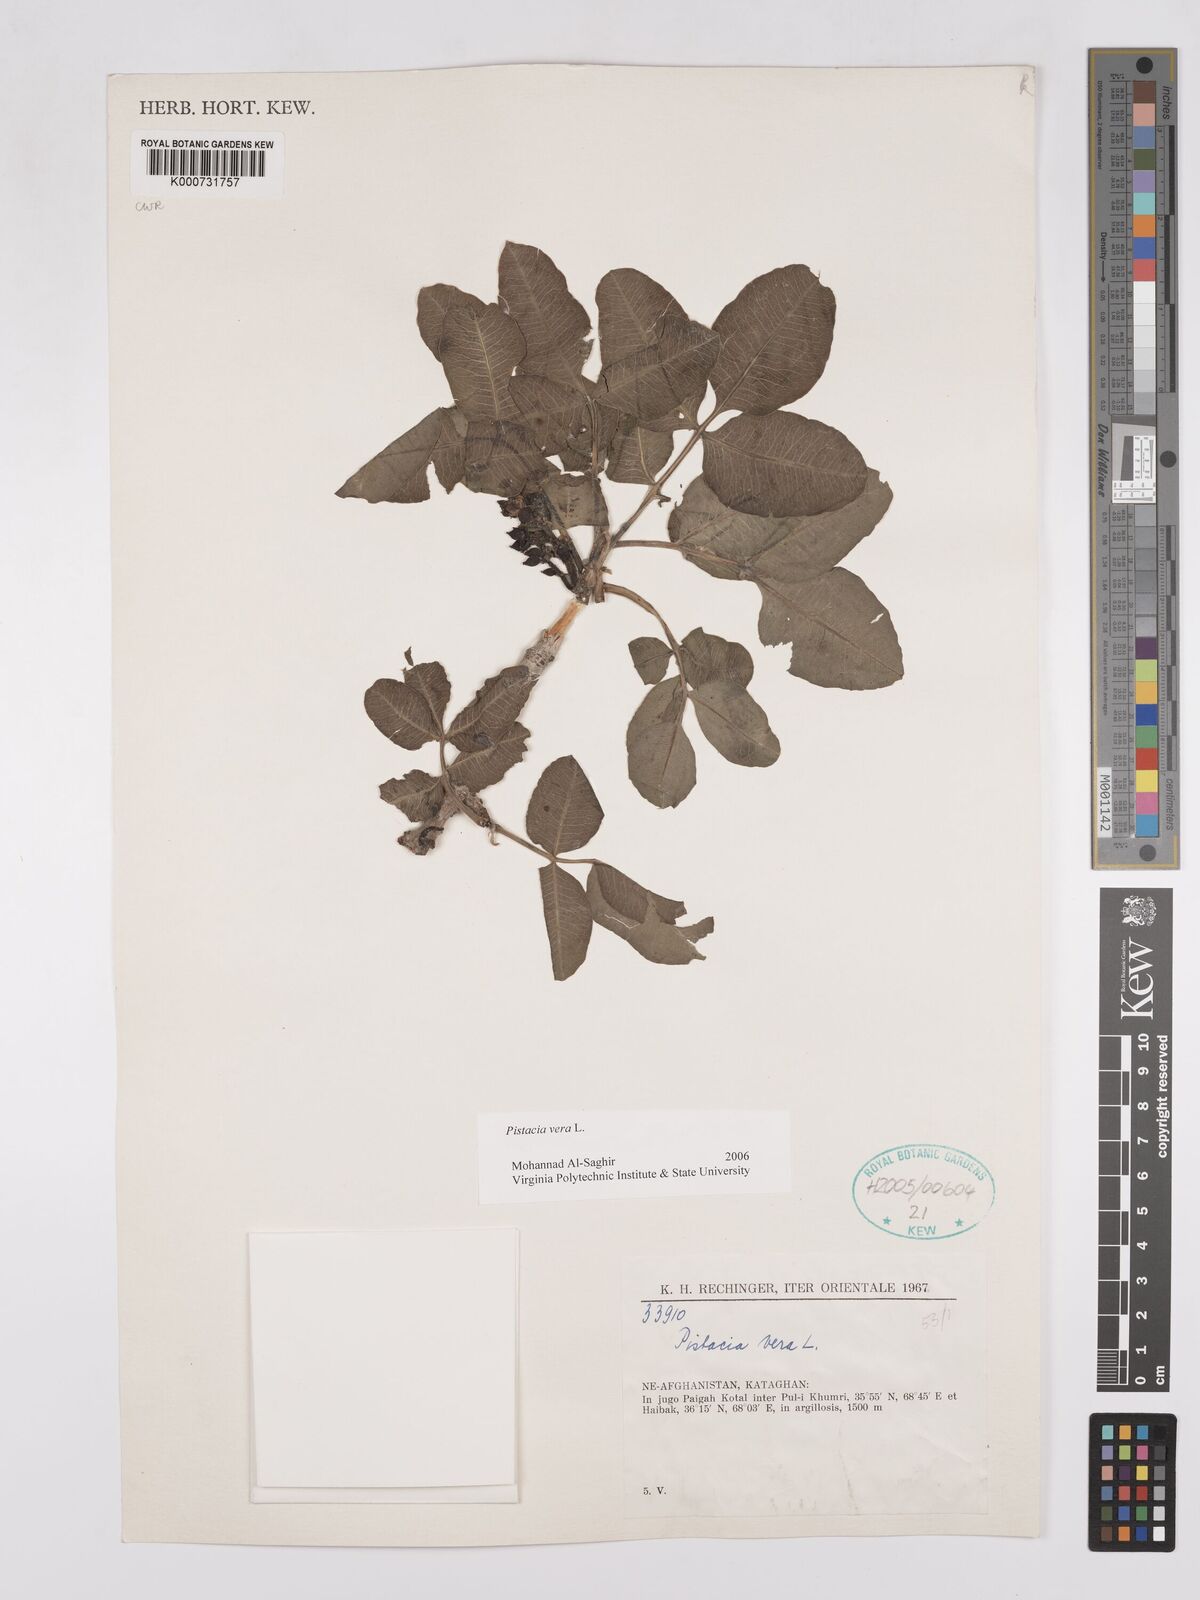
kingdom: Plantae
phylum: Tracheophyta
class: Magnoliopsida
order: Sapindales
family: Anacardiaceae
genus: Pistacia
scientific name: Pistacia vera
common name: Pistachio
